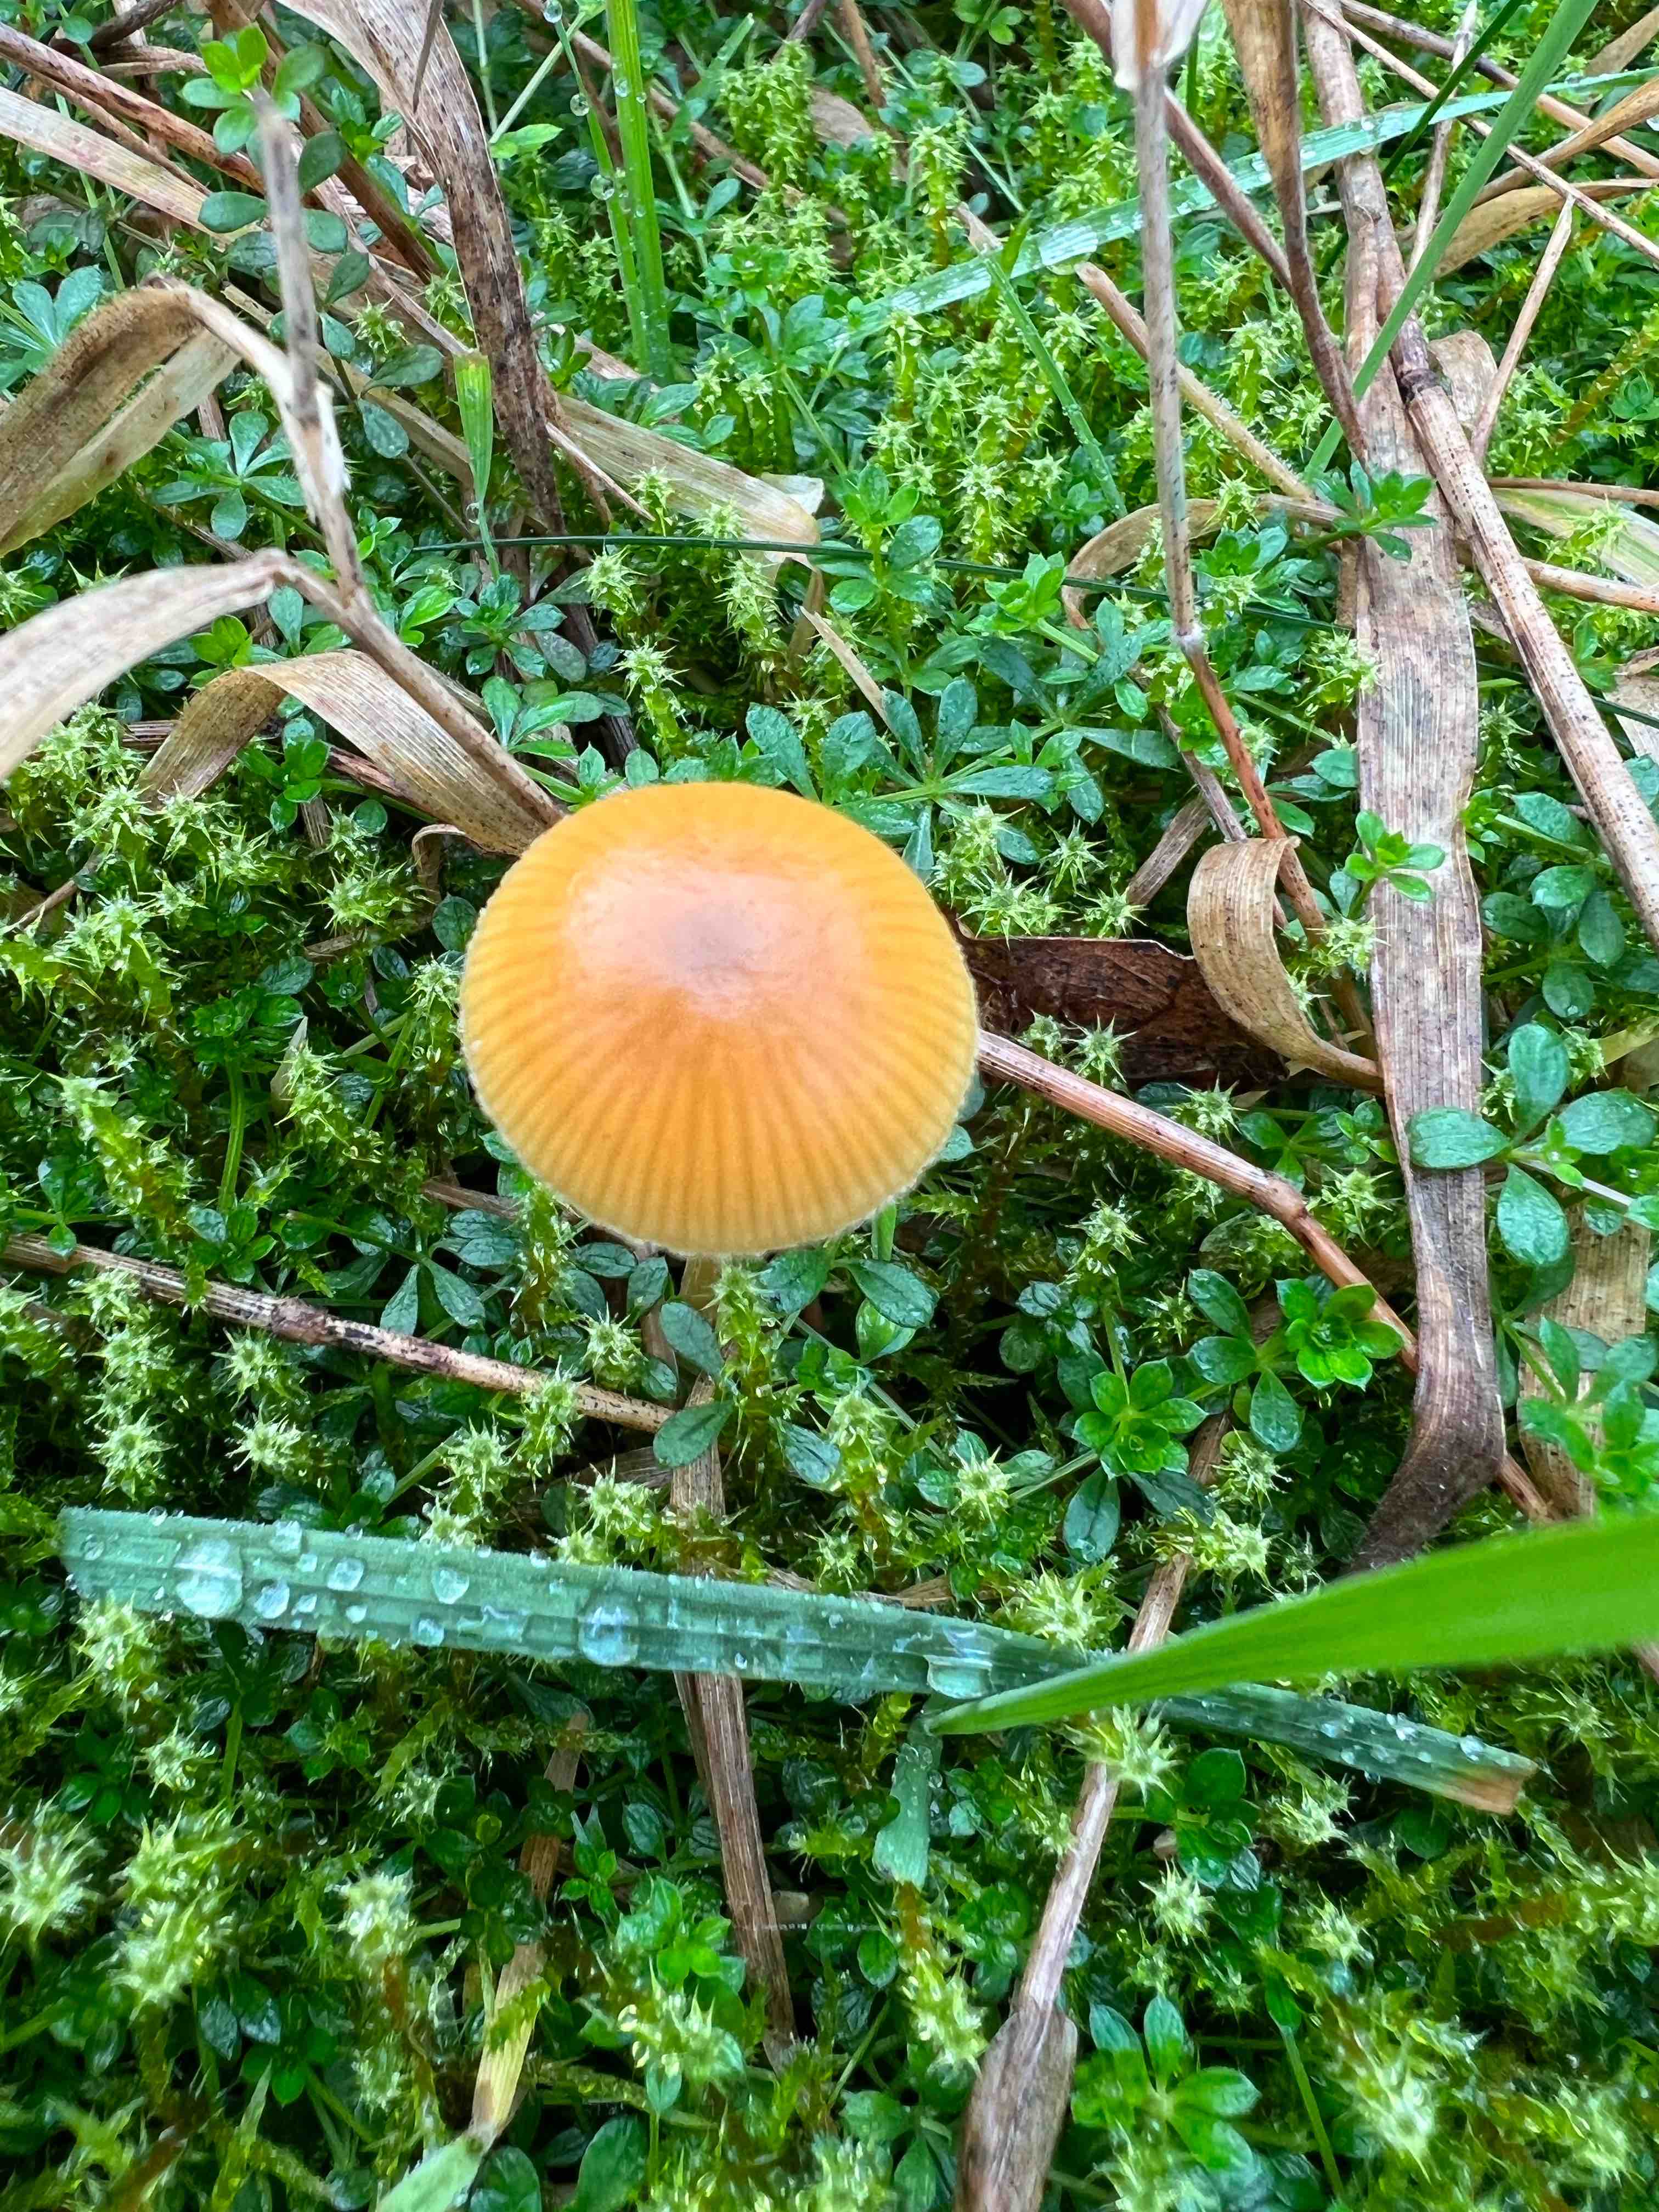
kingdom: Fungi
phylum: Basidiomycota
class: Agaricomycetes
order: Agaricales
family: Hymenogastraceae
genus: Galerina
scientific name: Galerina
